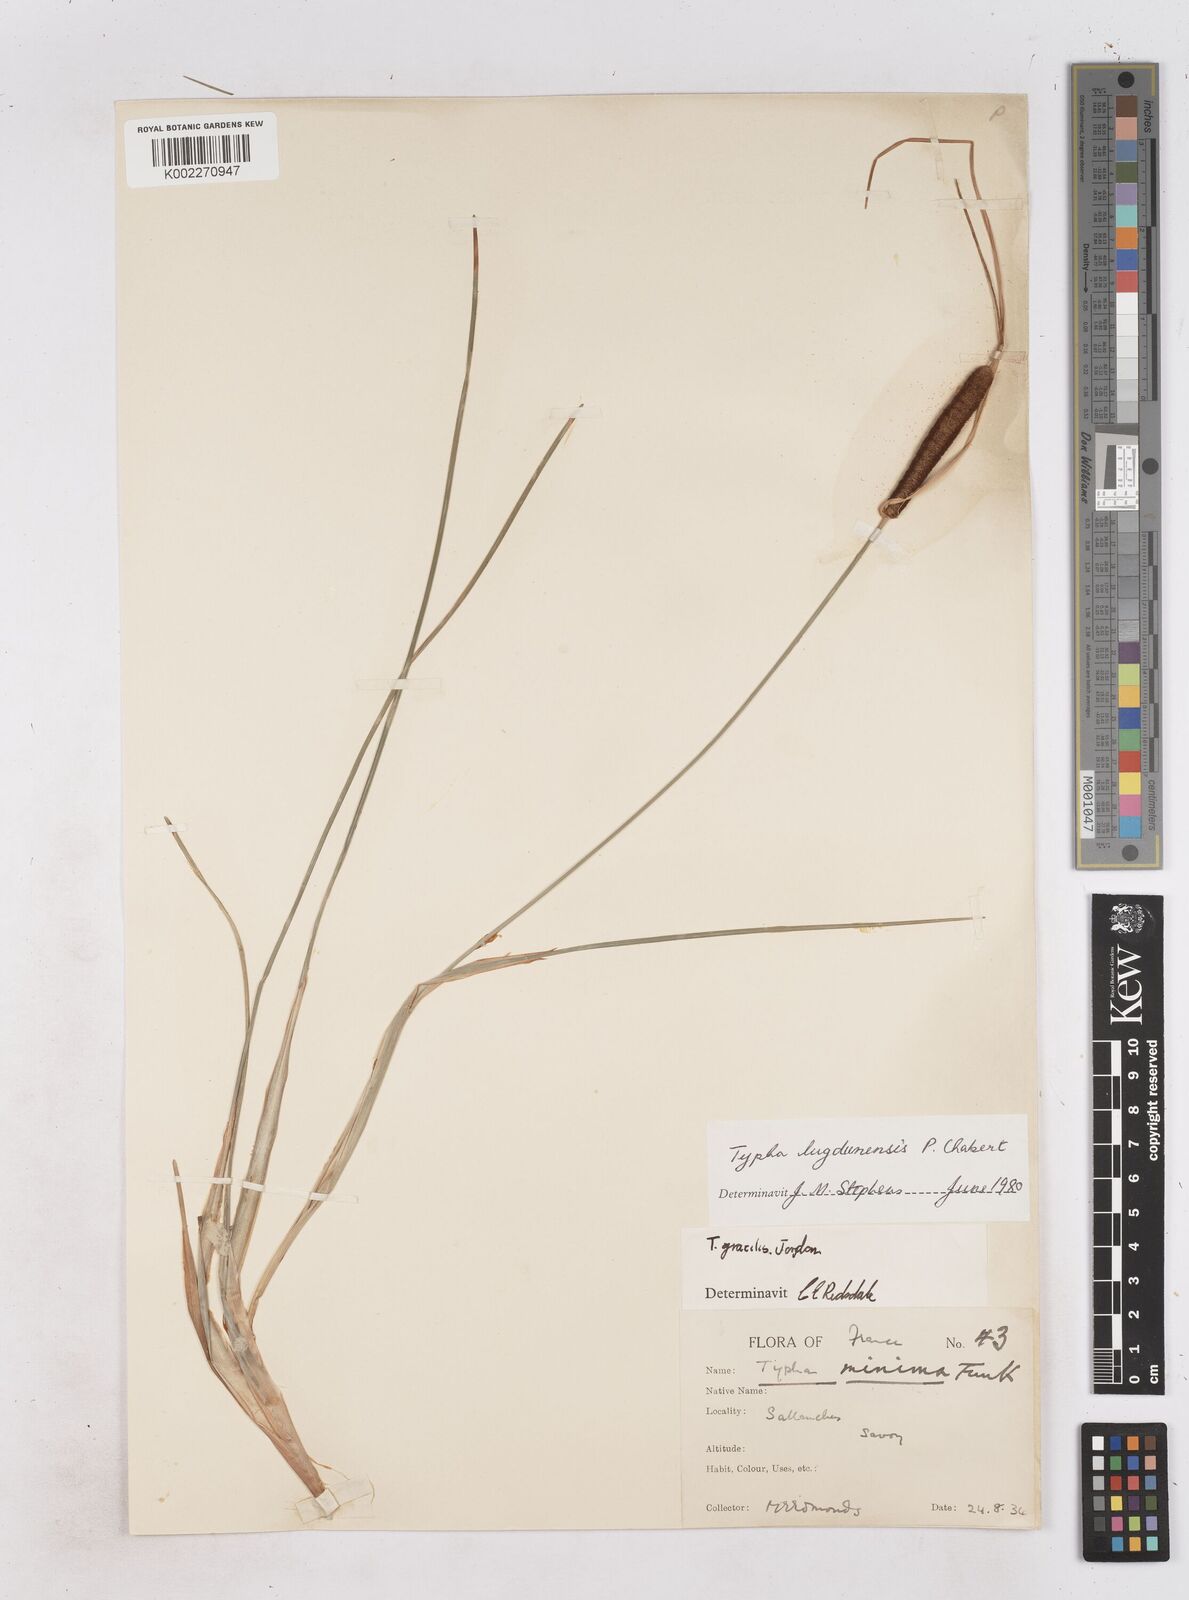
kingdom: Plantae
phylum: Tracheophyta
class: Liliopsida
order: Poales
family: Typhaceae
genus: Typha
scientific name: Typha lugdunensis
